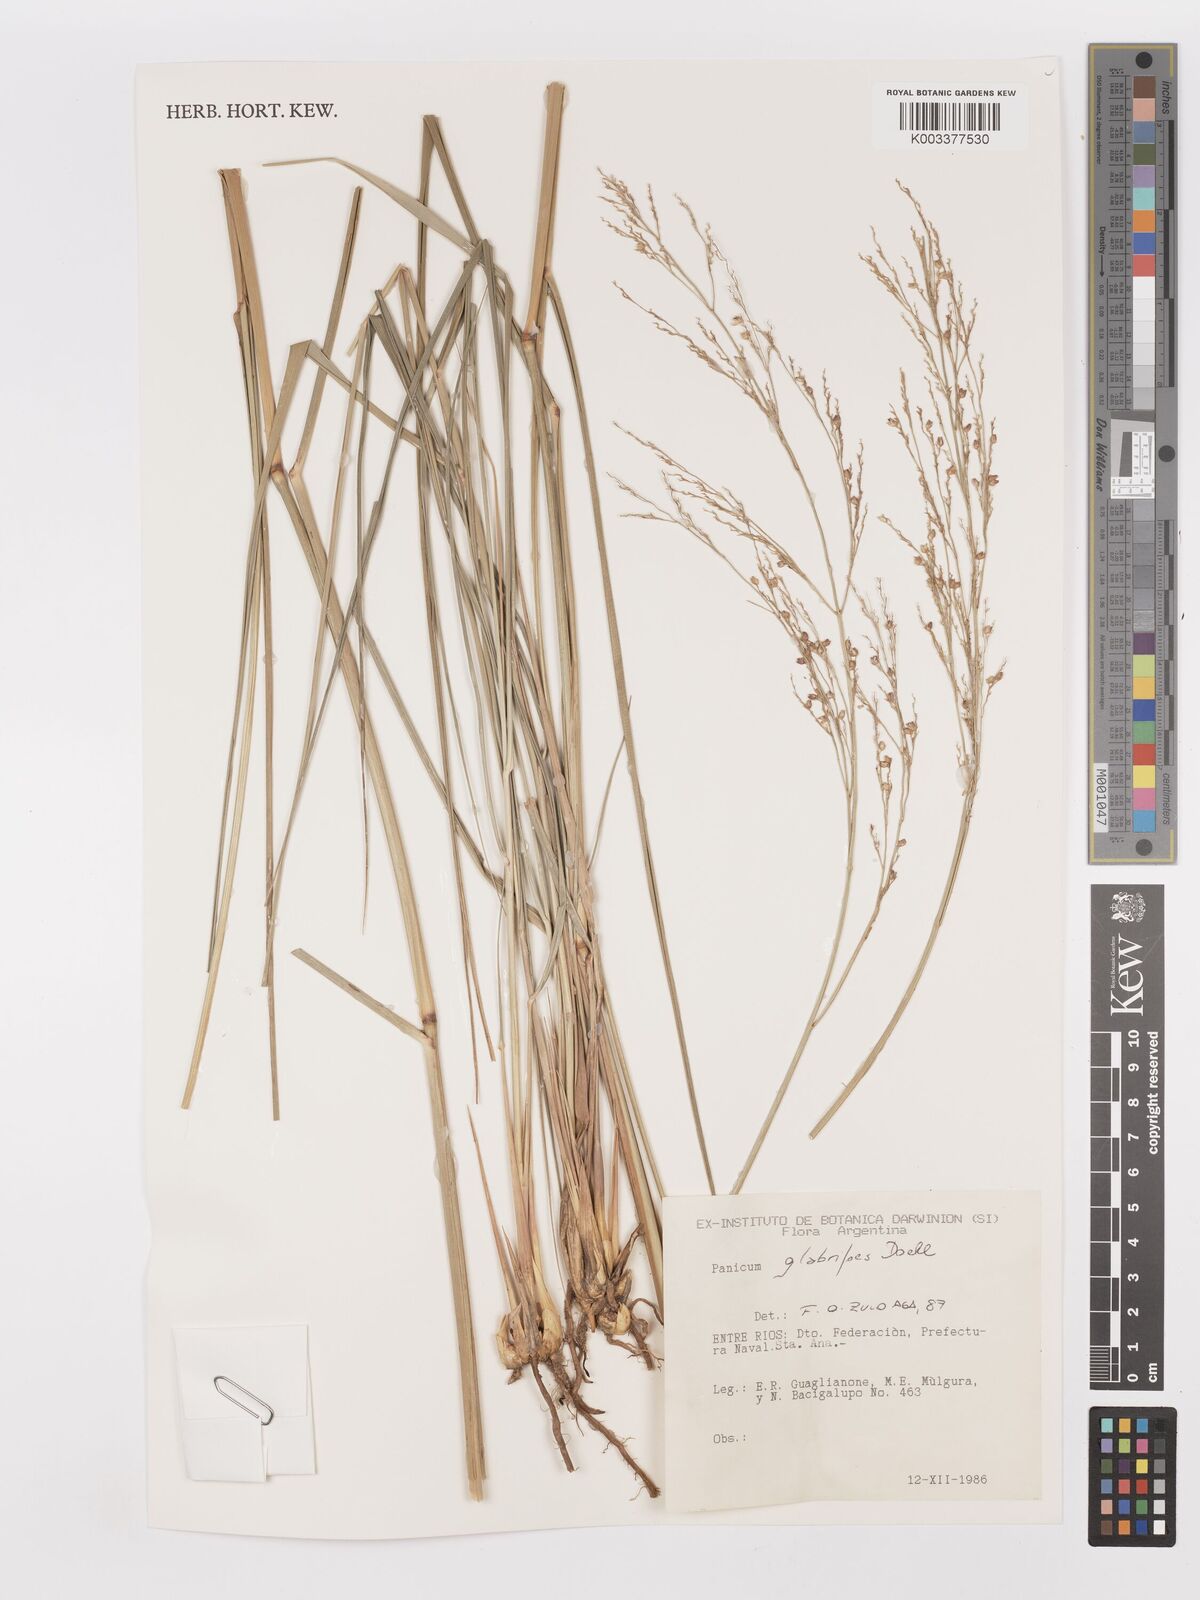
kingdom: Plantae
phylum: Tracheophyta
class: Liliopsida
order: Poales
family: Poaceae
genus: Panicum
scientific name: Panicum glabripes
